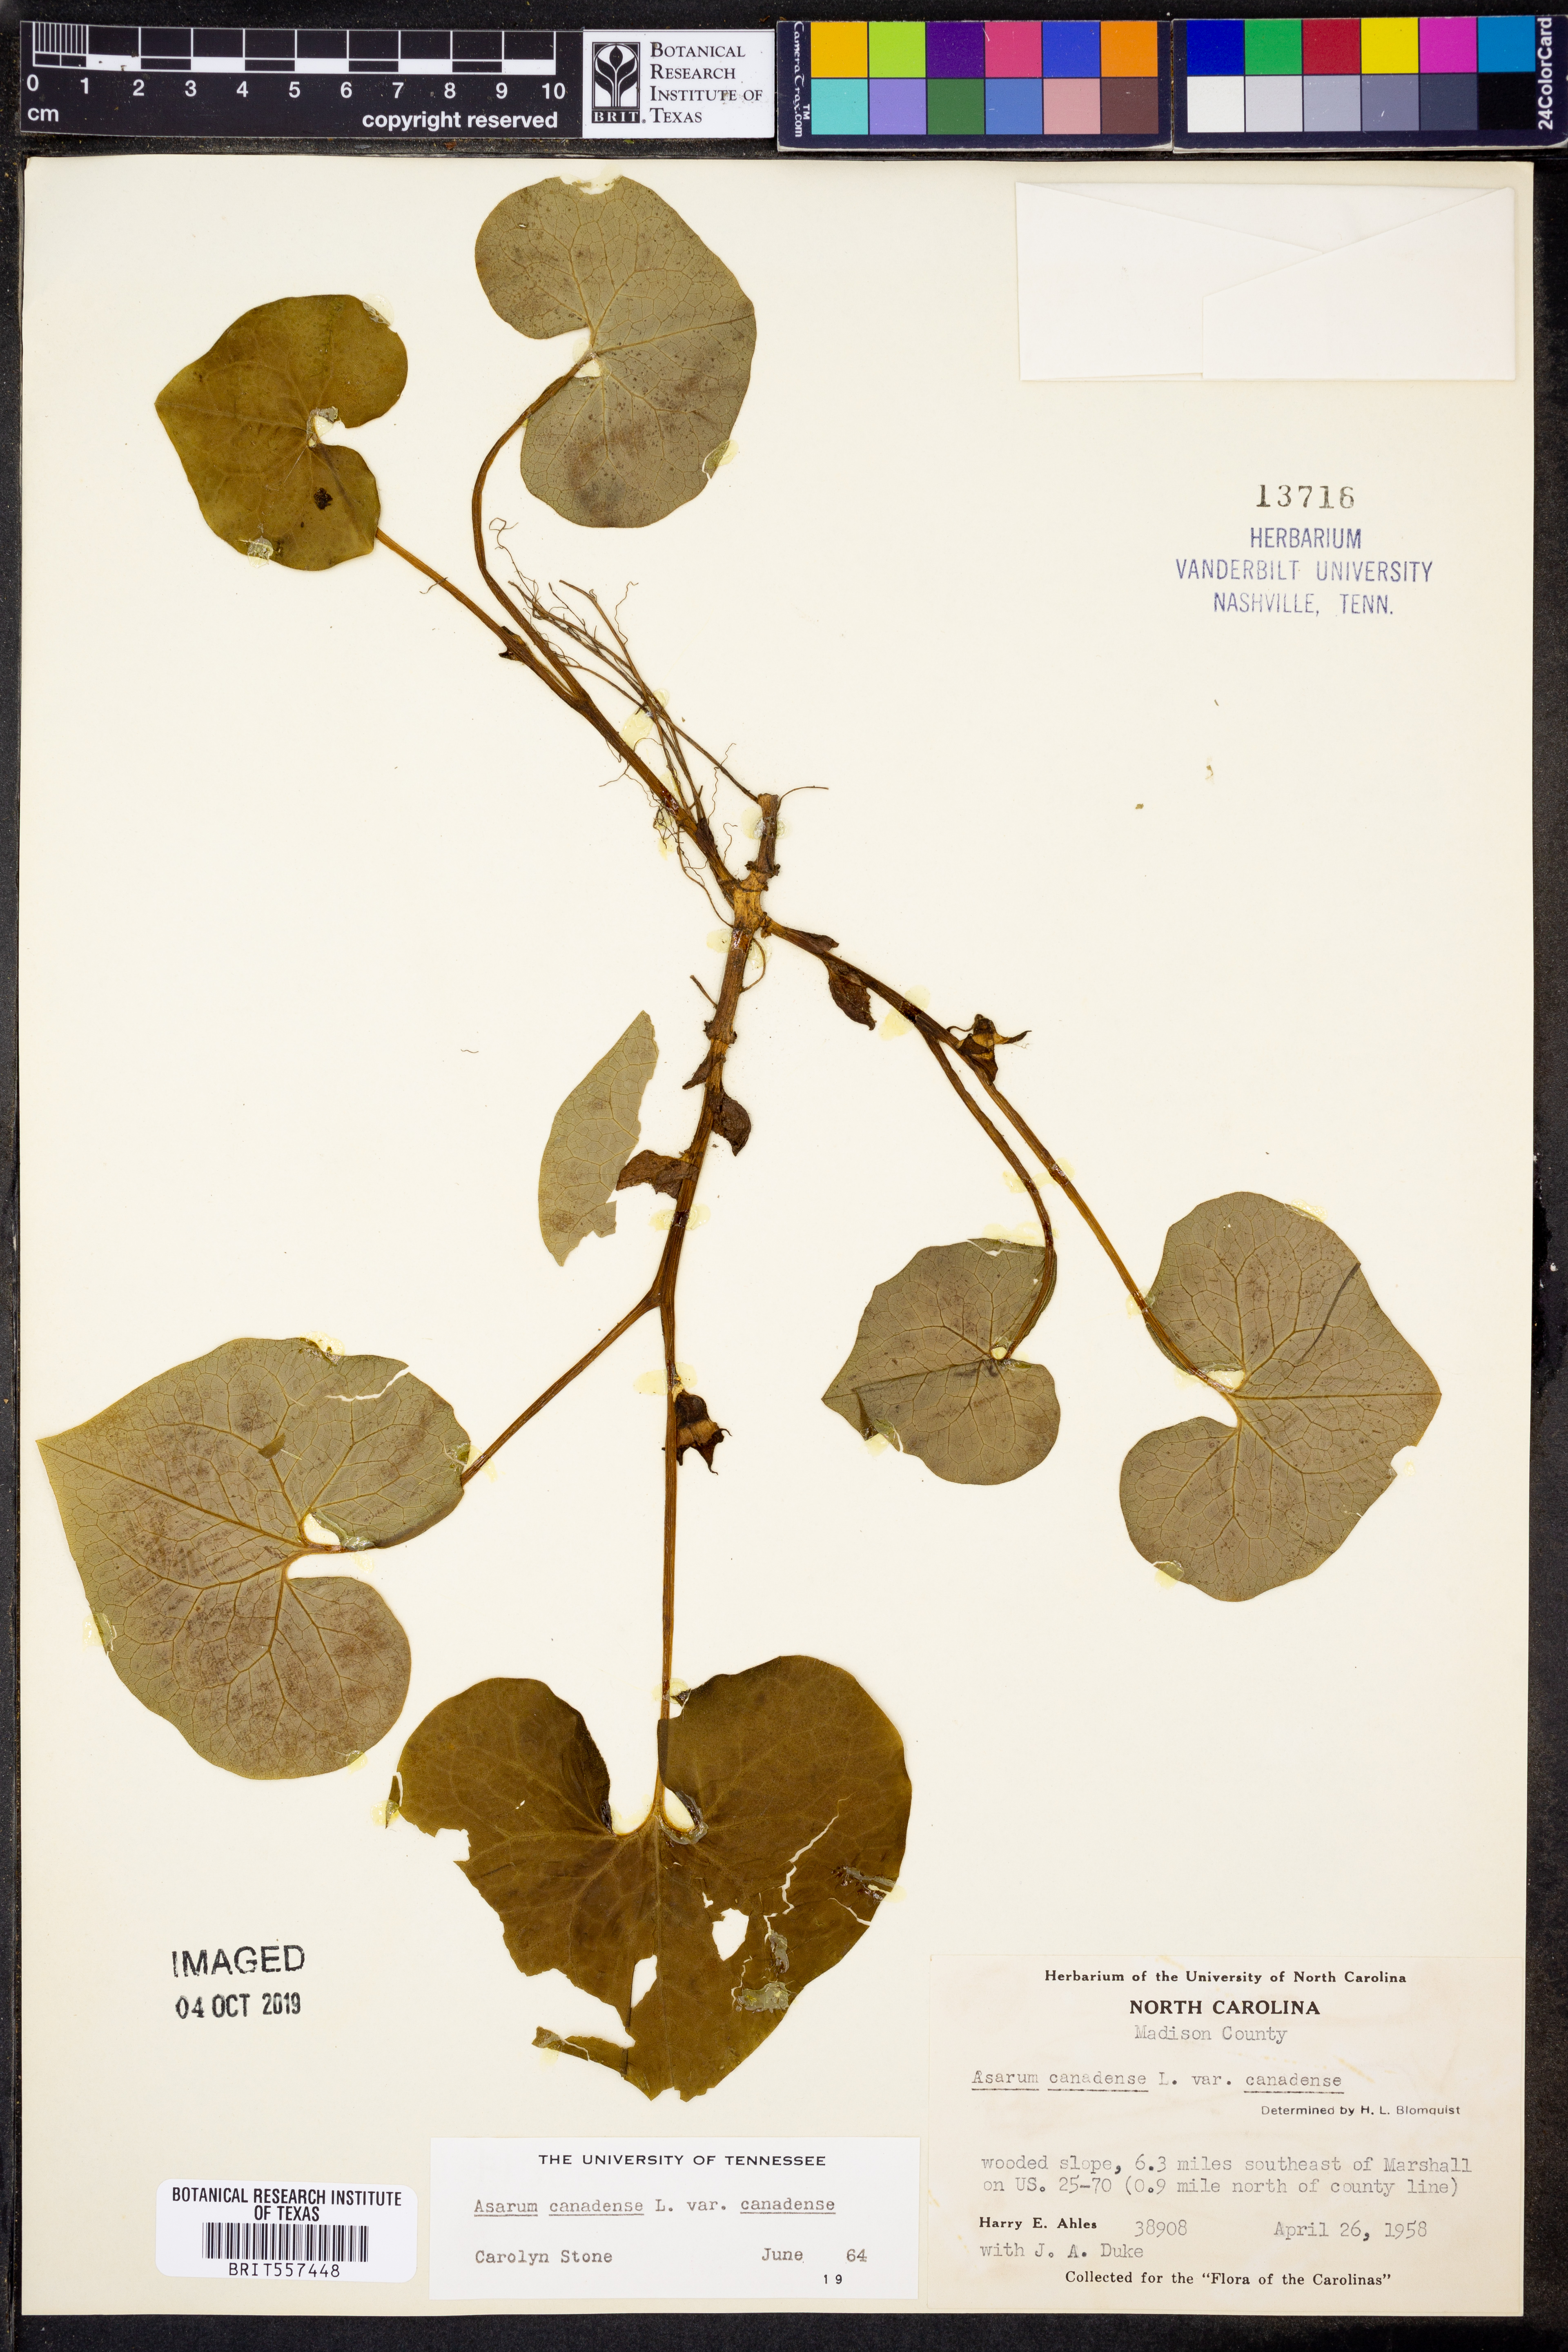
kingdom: Plantae
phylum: Tracheophyta
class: Magnoliopsida
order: Piperales
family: Aristolochiaceae
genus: Asarum
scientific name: Asarum canadense
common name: Wild ginger
